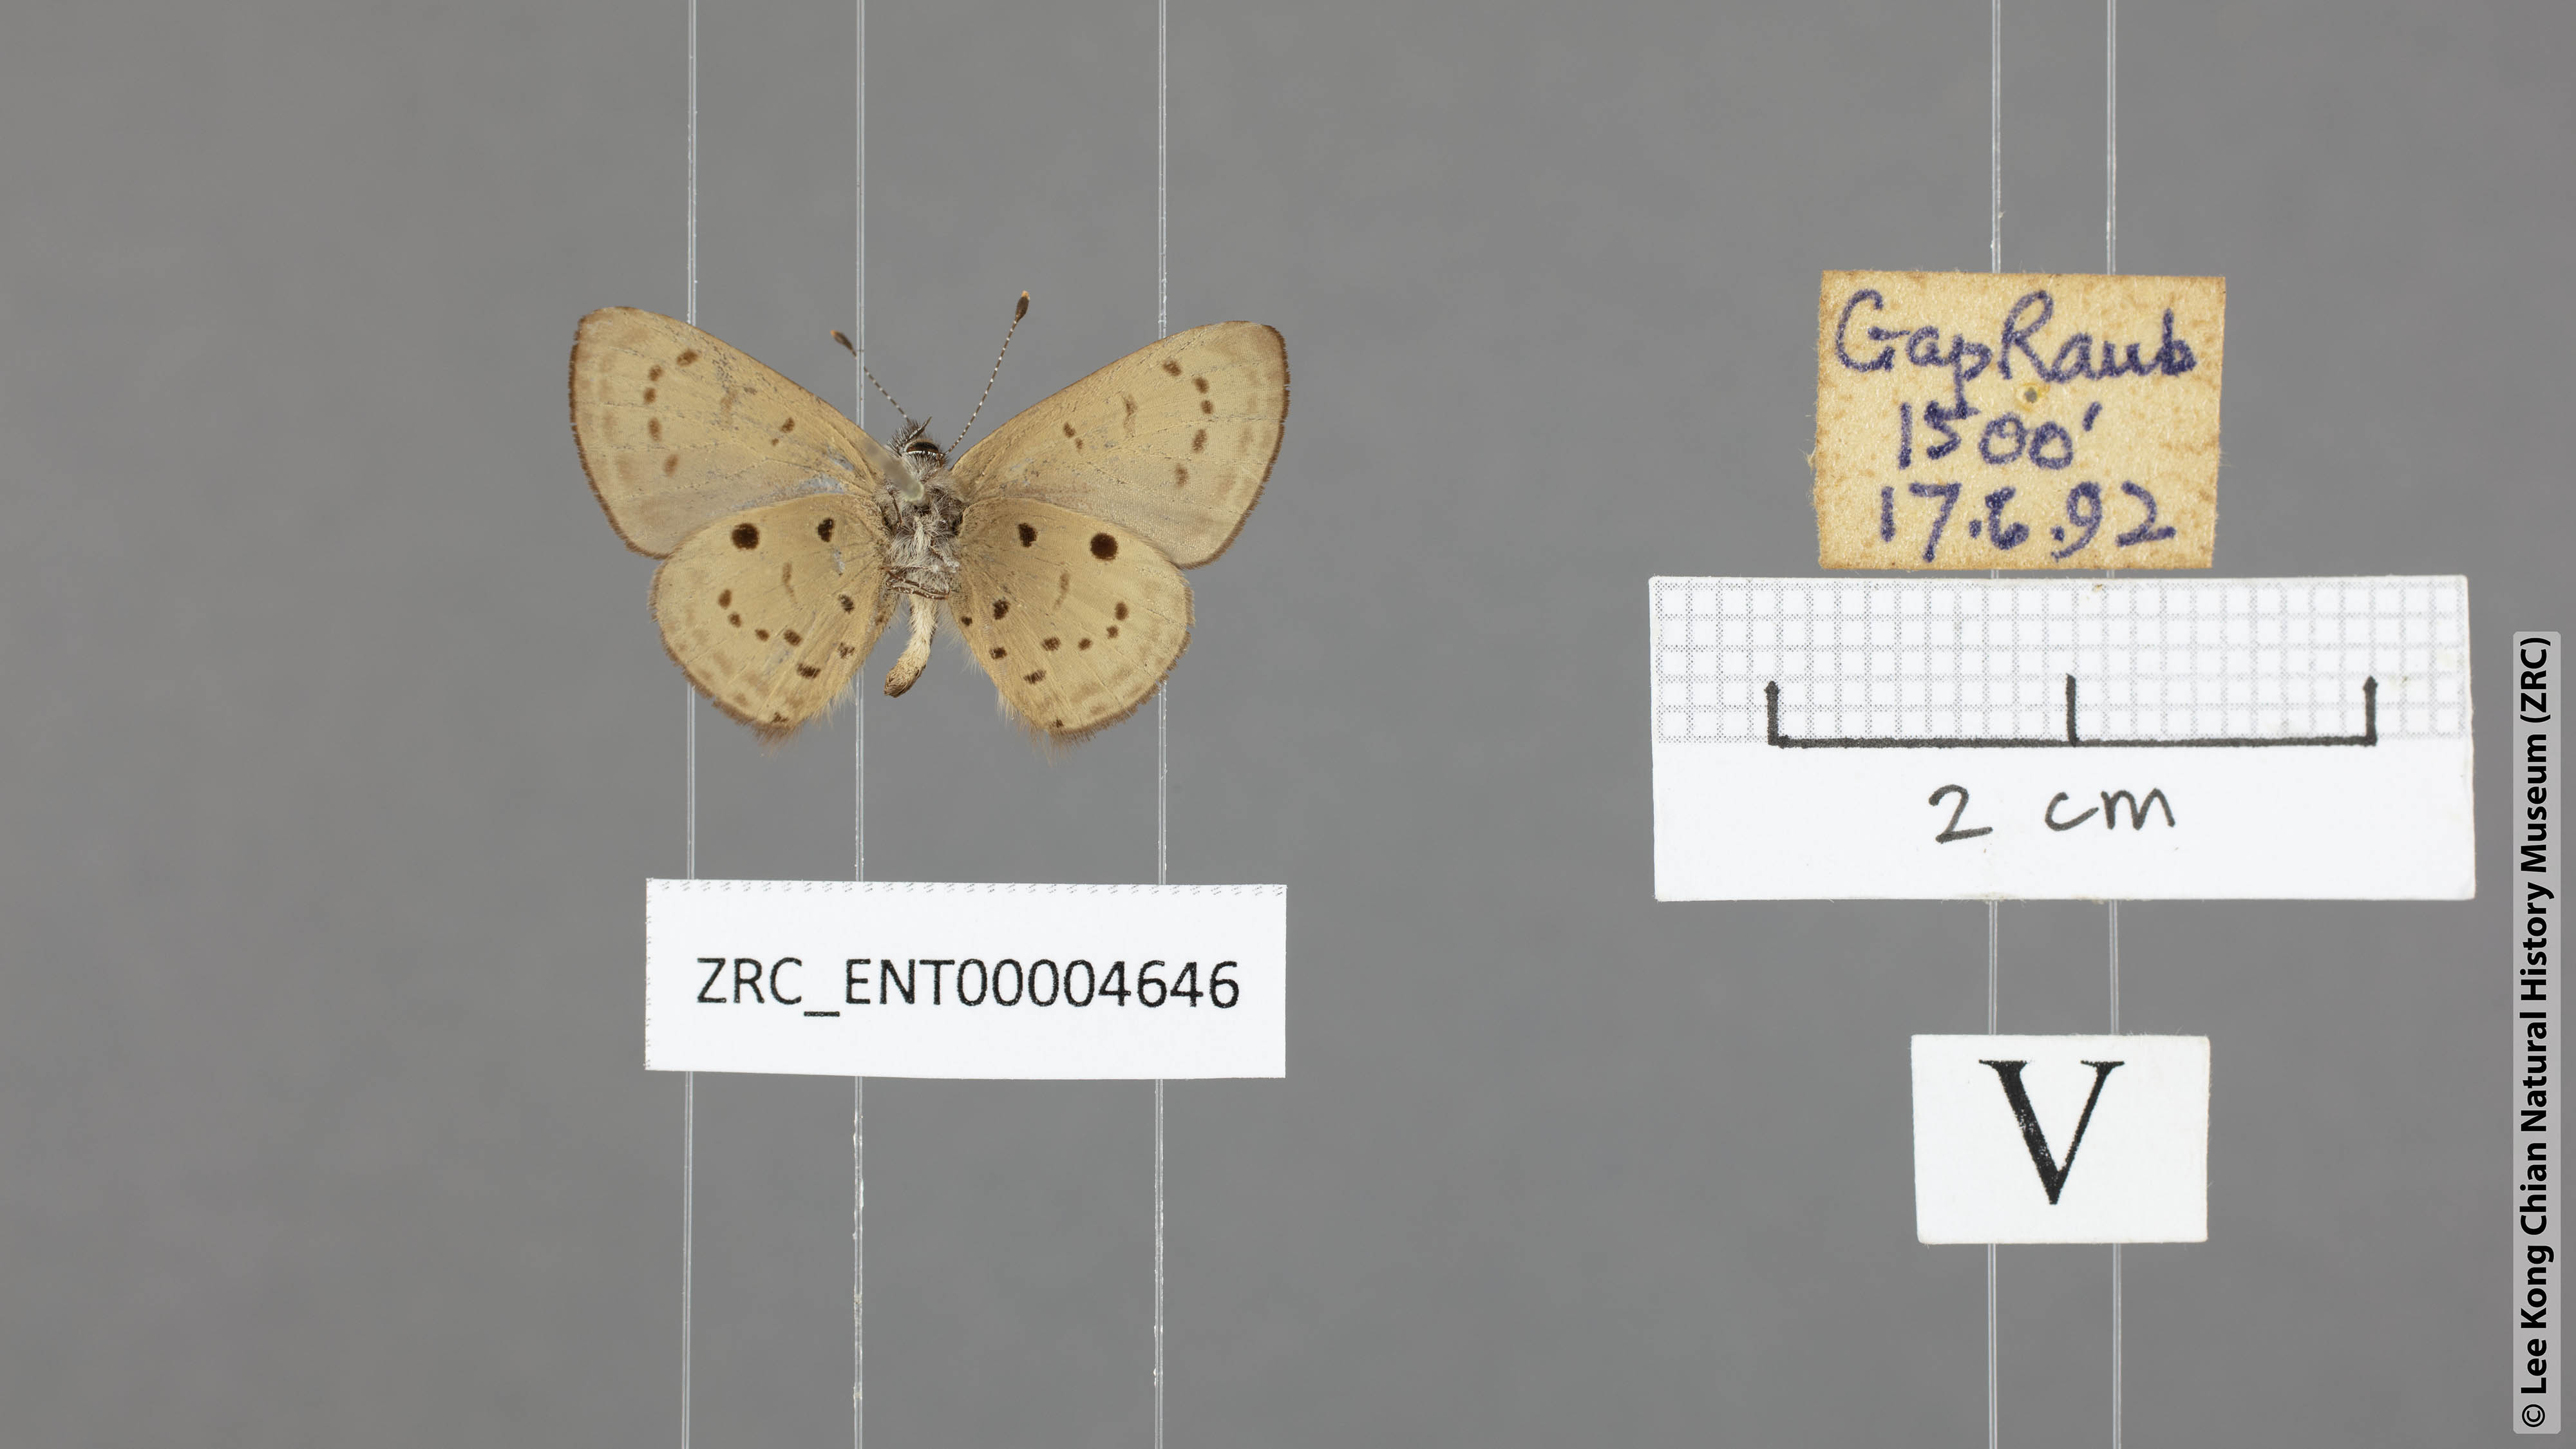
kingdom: Animalia
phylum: Arthropoda
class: Insecta
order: Lepidoptera
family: Lycaenidae
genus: Una
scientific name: Una usta
